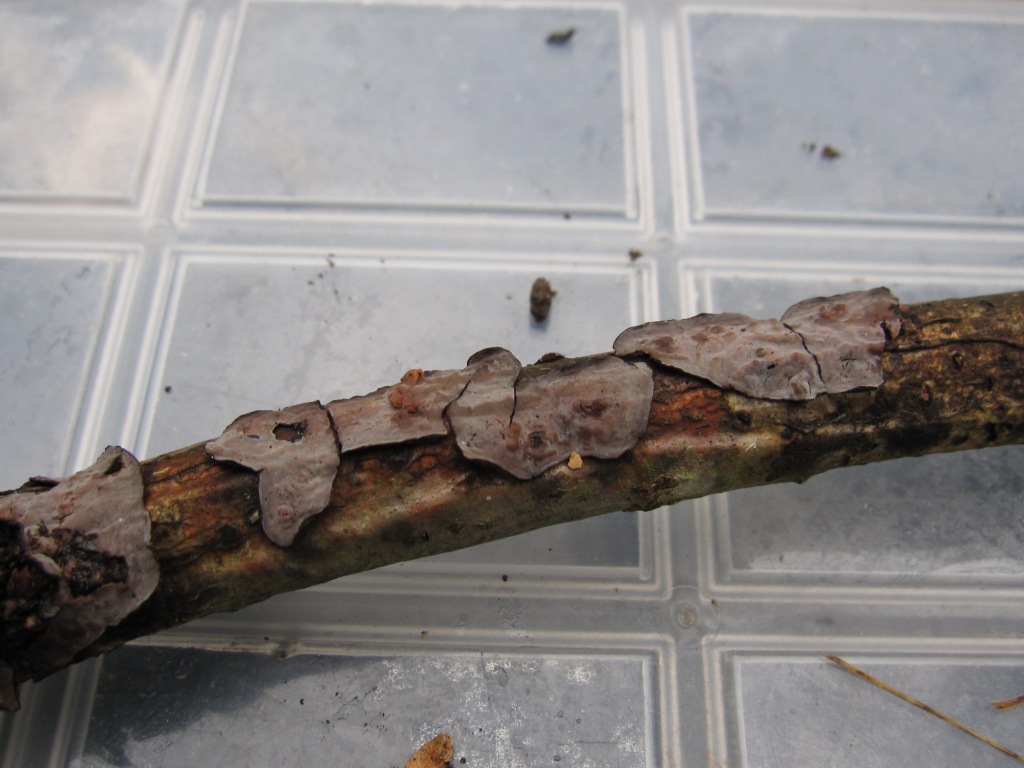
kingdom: Fungi
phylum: Basidiomycota
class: Agaricomycetes
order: Russulales
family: Peniophoraceae
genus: Peniophora
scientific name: Peniophora quercina
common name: ege-voksskind
